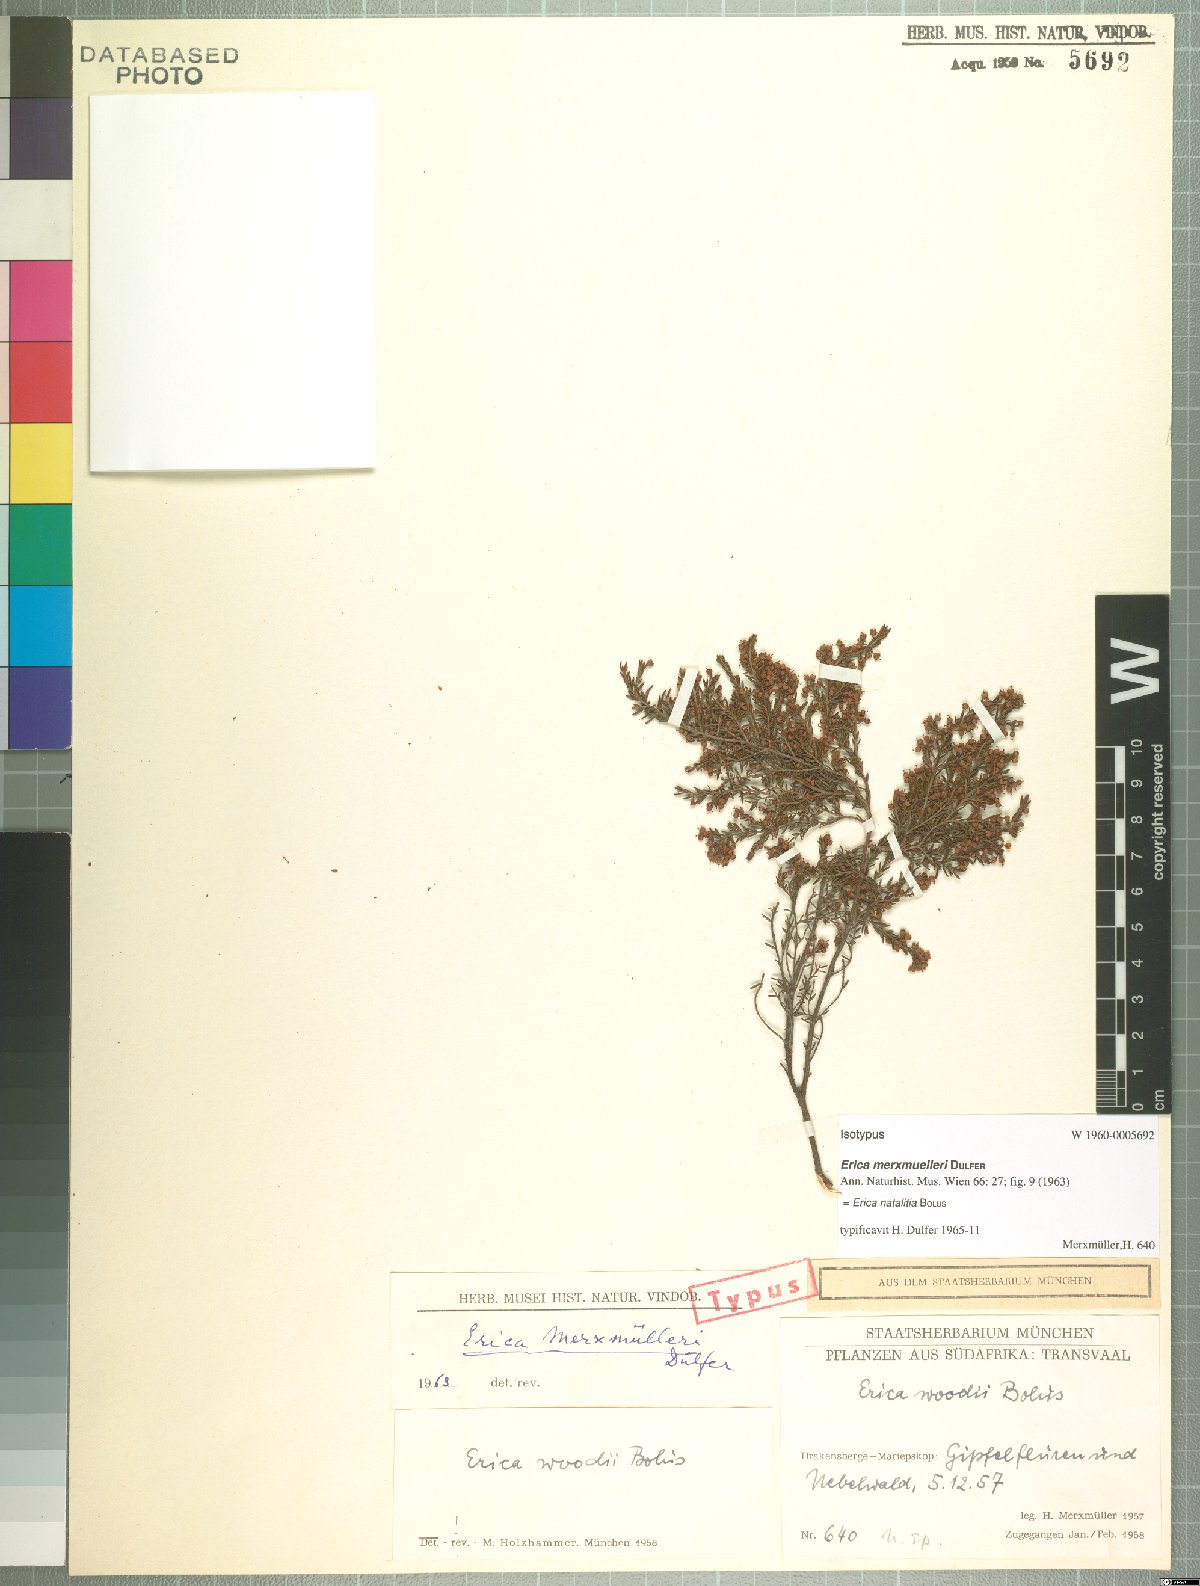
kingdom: Plantae
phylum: Tracheophyta
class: Magnoliopsida
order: Ericales
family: Ericaceae
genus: Erica
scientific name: Erica natalitia
